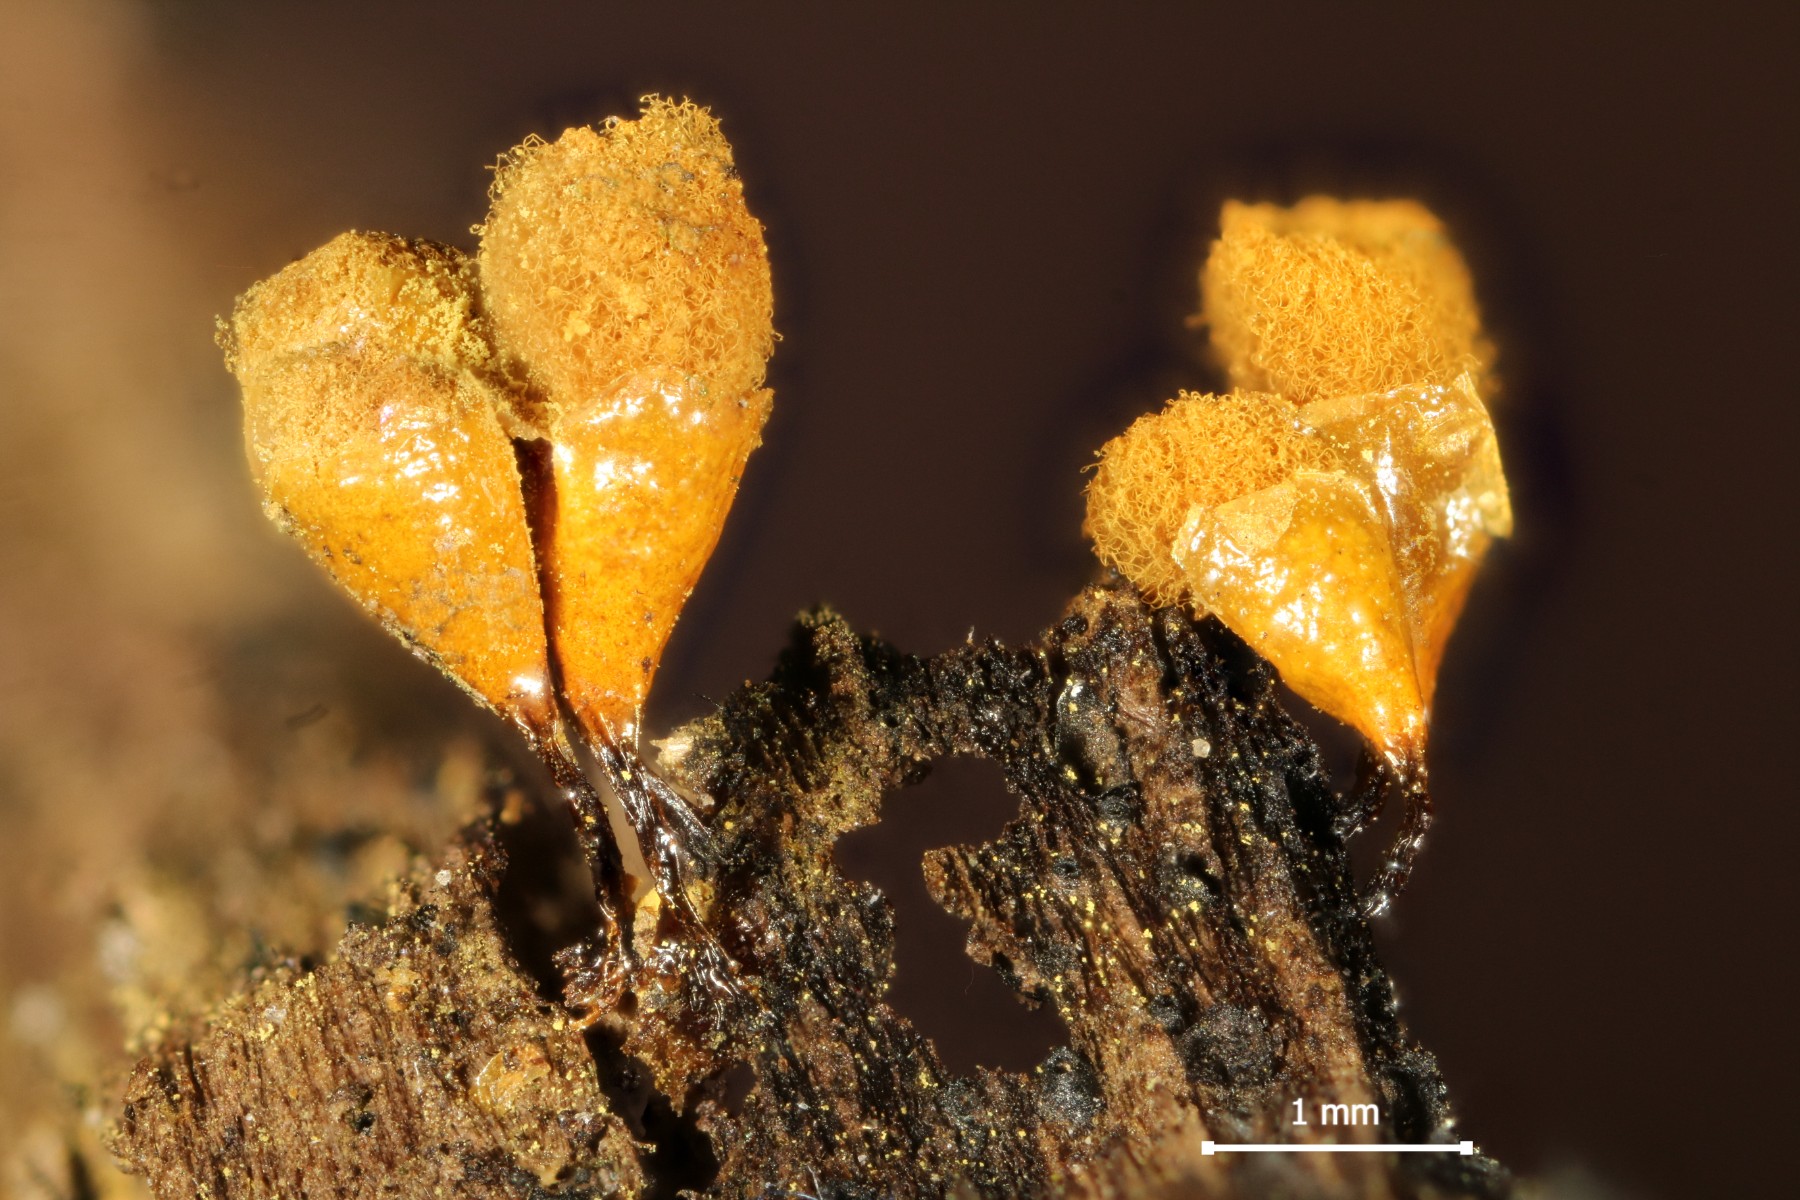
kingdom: Protozoa
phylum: Mycetozoa
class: Myxomycetes
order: Trichiales
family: Arcyriaceae
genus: Hemitrichia
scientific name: Hemitrichia clavata
